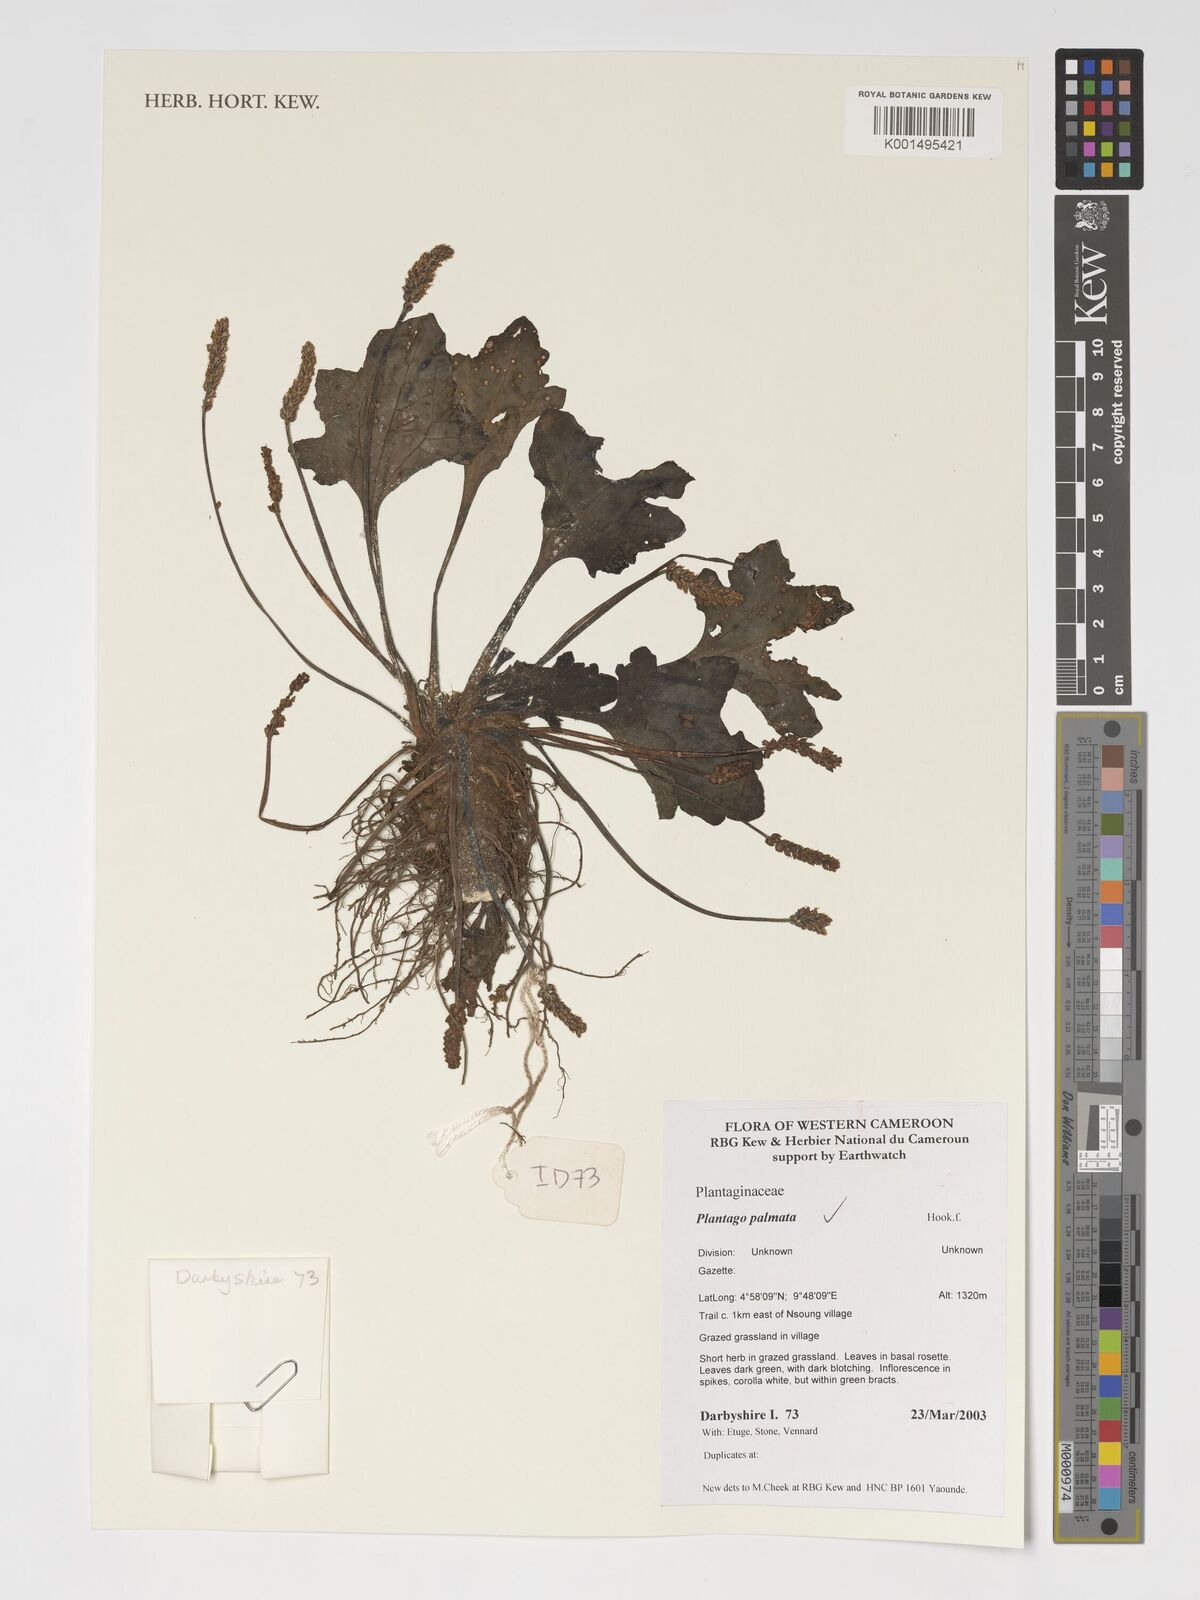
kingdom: Plantae
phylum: Tracheophyta
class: Magnoliopsida
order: Lamiales
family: Plantaginaceae
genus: Plantago
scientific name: Plantago palmata
